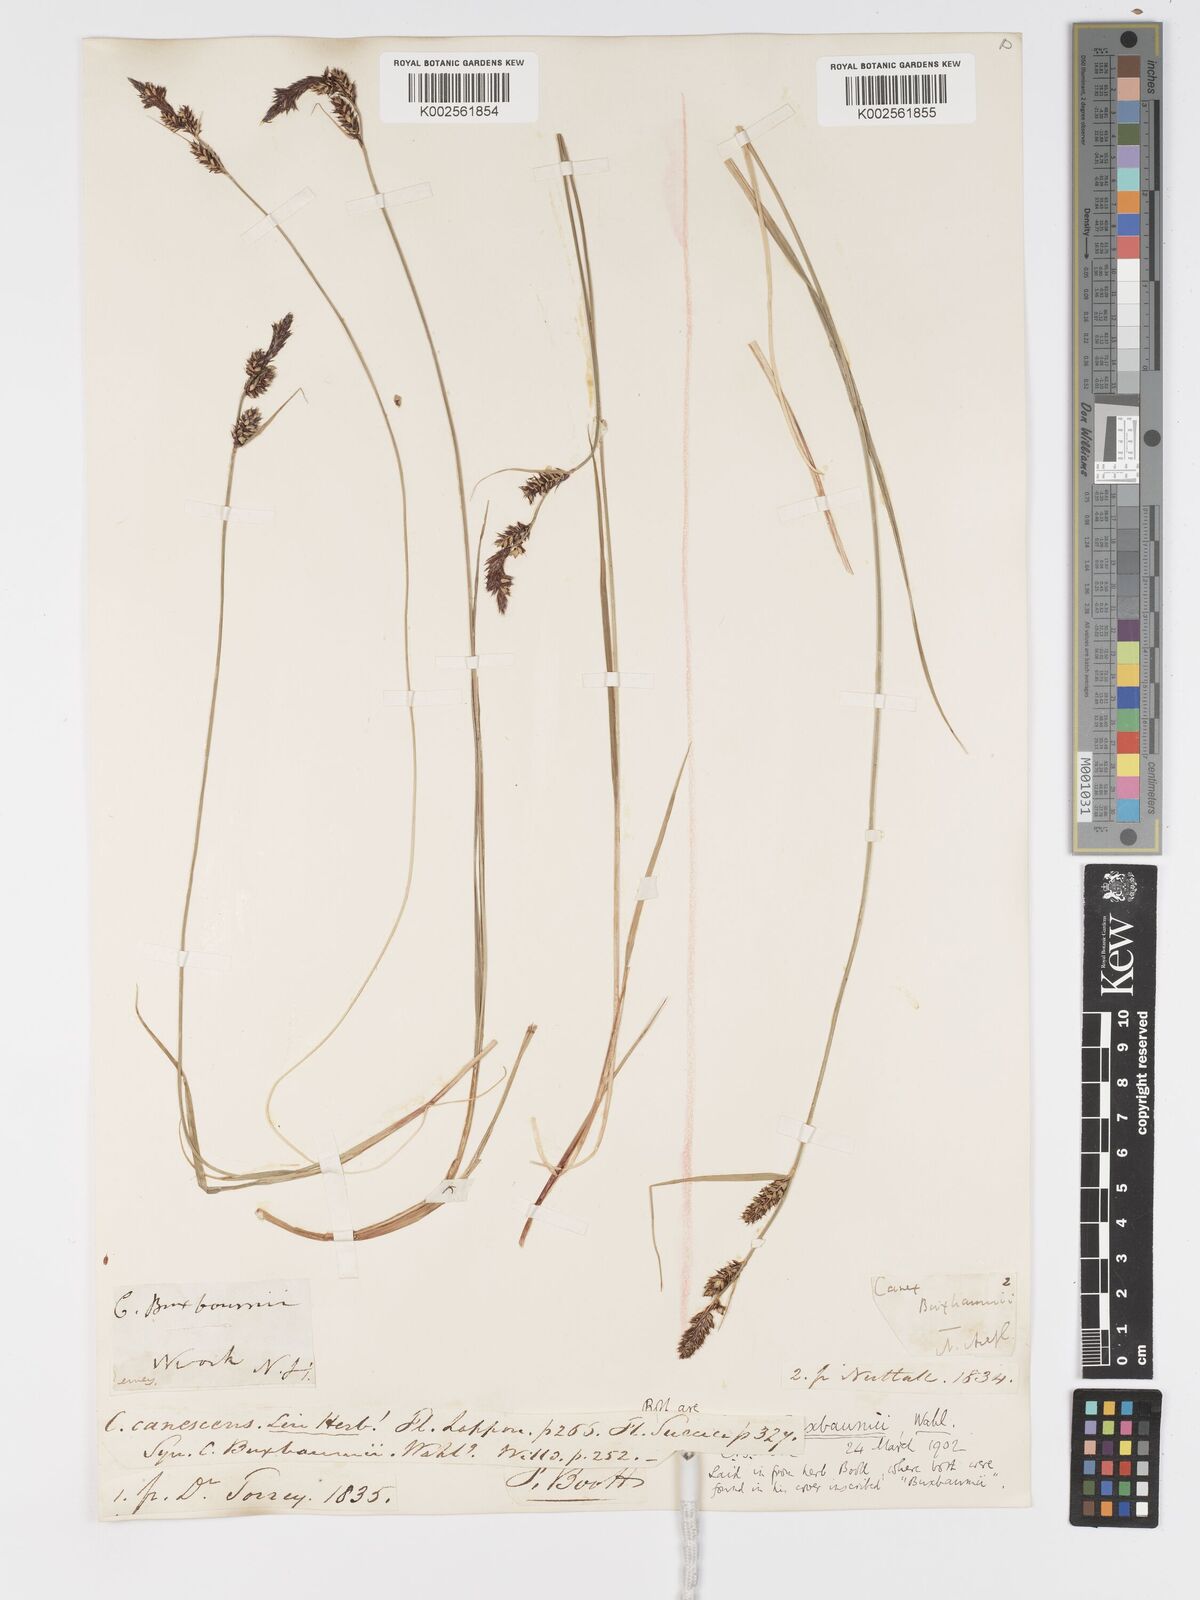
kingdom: Plantae
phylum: Tracheophyta
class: Liliopsida
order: Poales
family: Cyperaceae
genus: Carex
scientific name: Carex buxbaumii
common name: Club sedge
